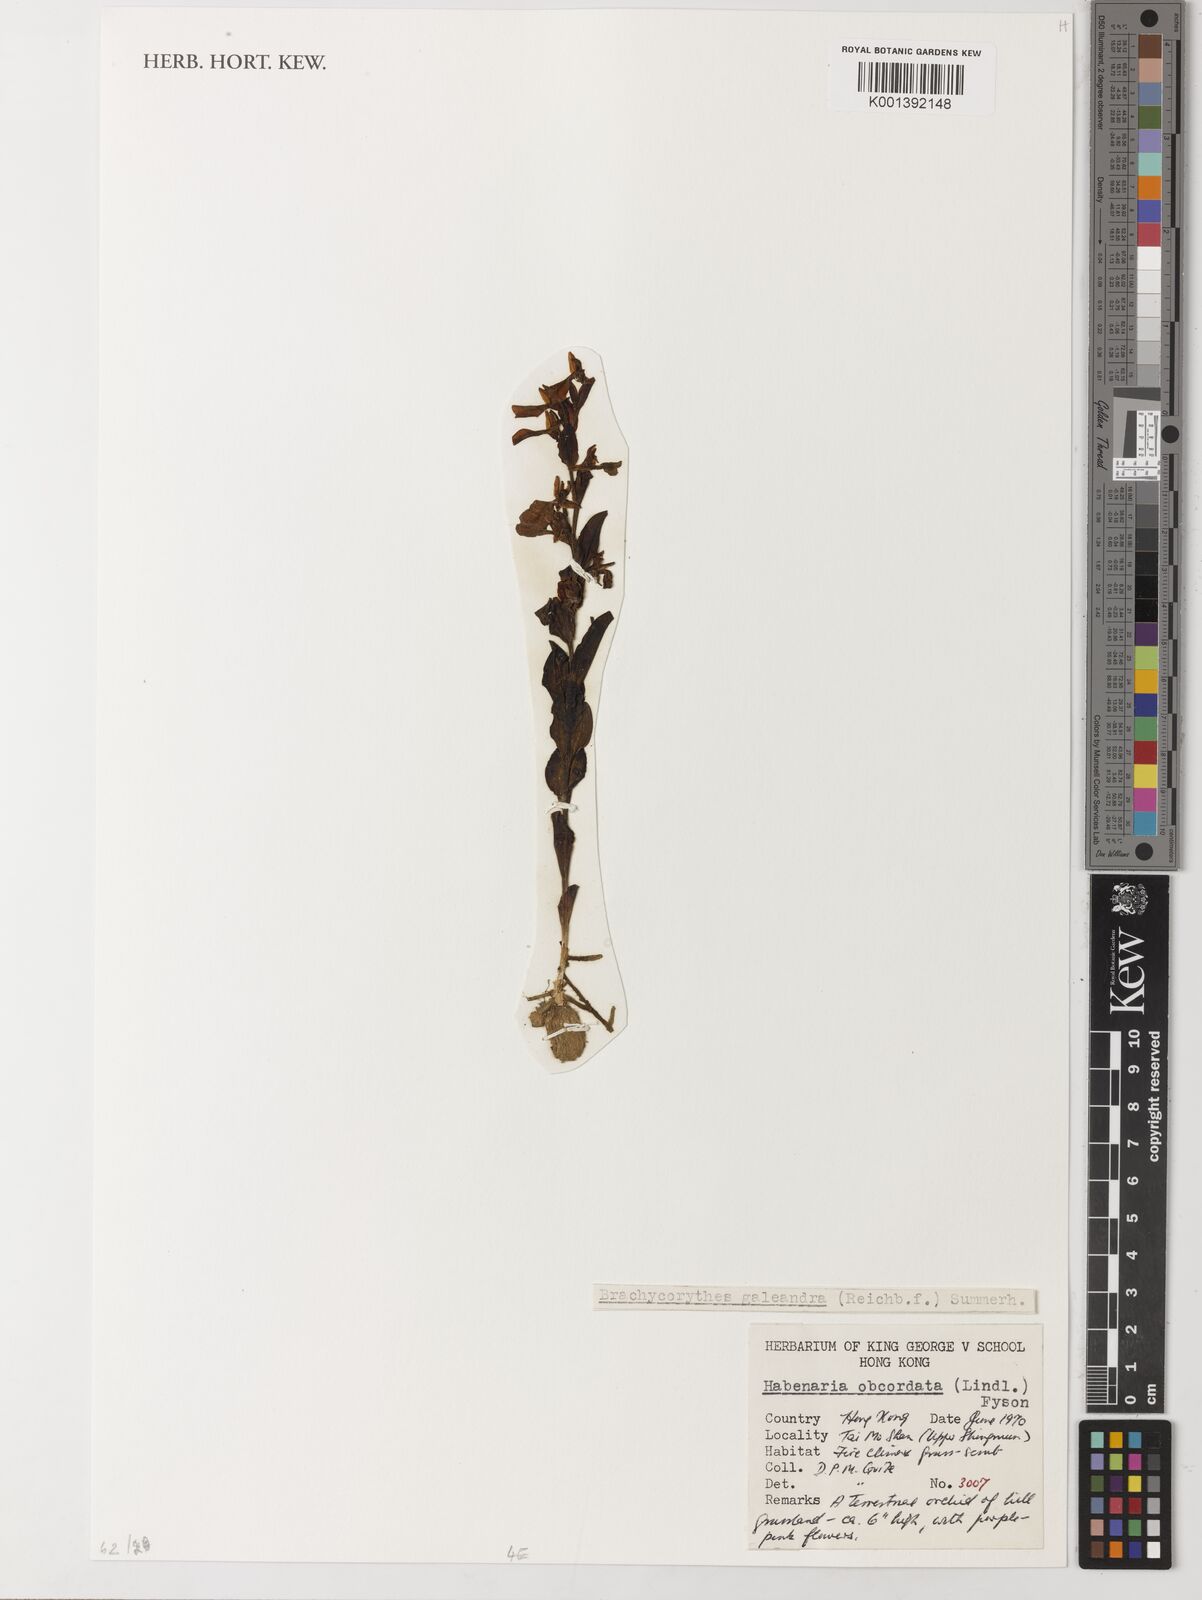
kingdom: Plantae
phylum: Tracheophyta
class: Liliopsida
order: Asparagales
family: Orchidaceae
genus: Brachycorythis
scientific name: Brachycorythis obcordata
